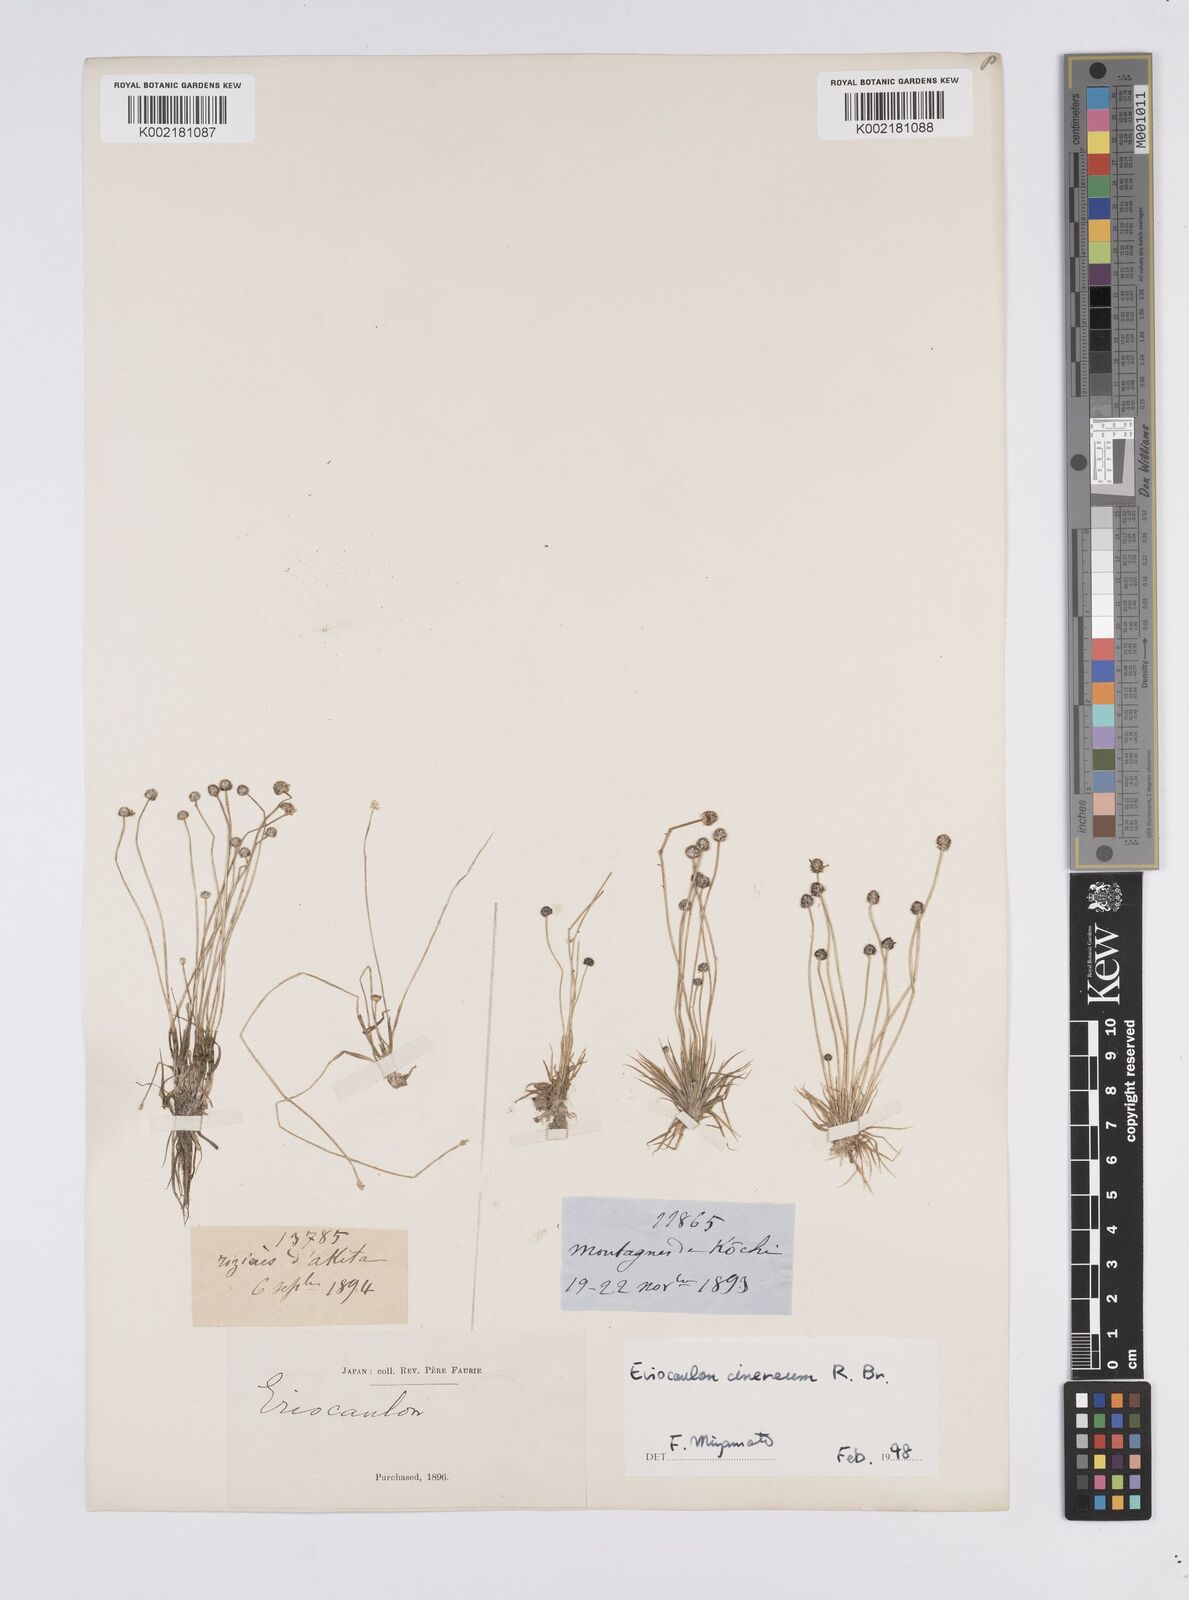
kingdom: Plantae
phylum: Tracheophyta
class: Liliopsida
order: Poales
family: Eriocaulaceae
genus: Eriocaulon
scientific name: Eriocaulon
